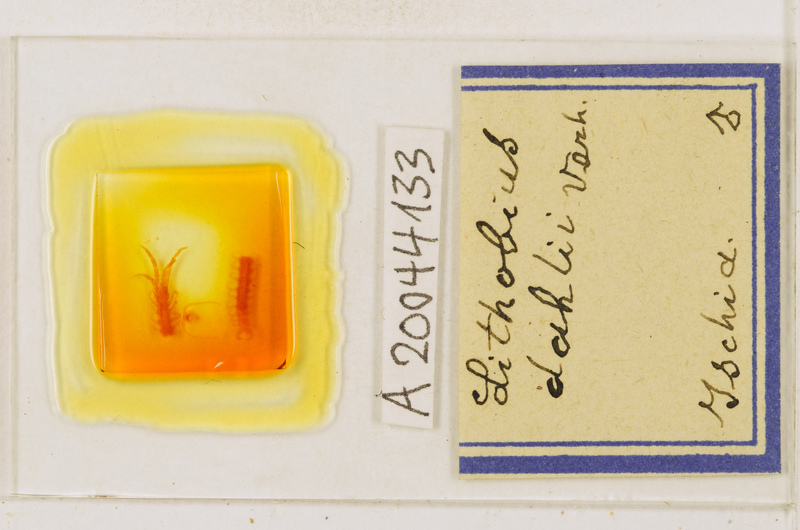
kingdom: Animalia
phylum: Arthropoda
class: Chilopoda
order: Lithobiomorpha
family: Lithobiidae
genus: Lithobius
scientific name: Lithobius dahlii
